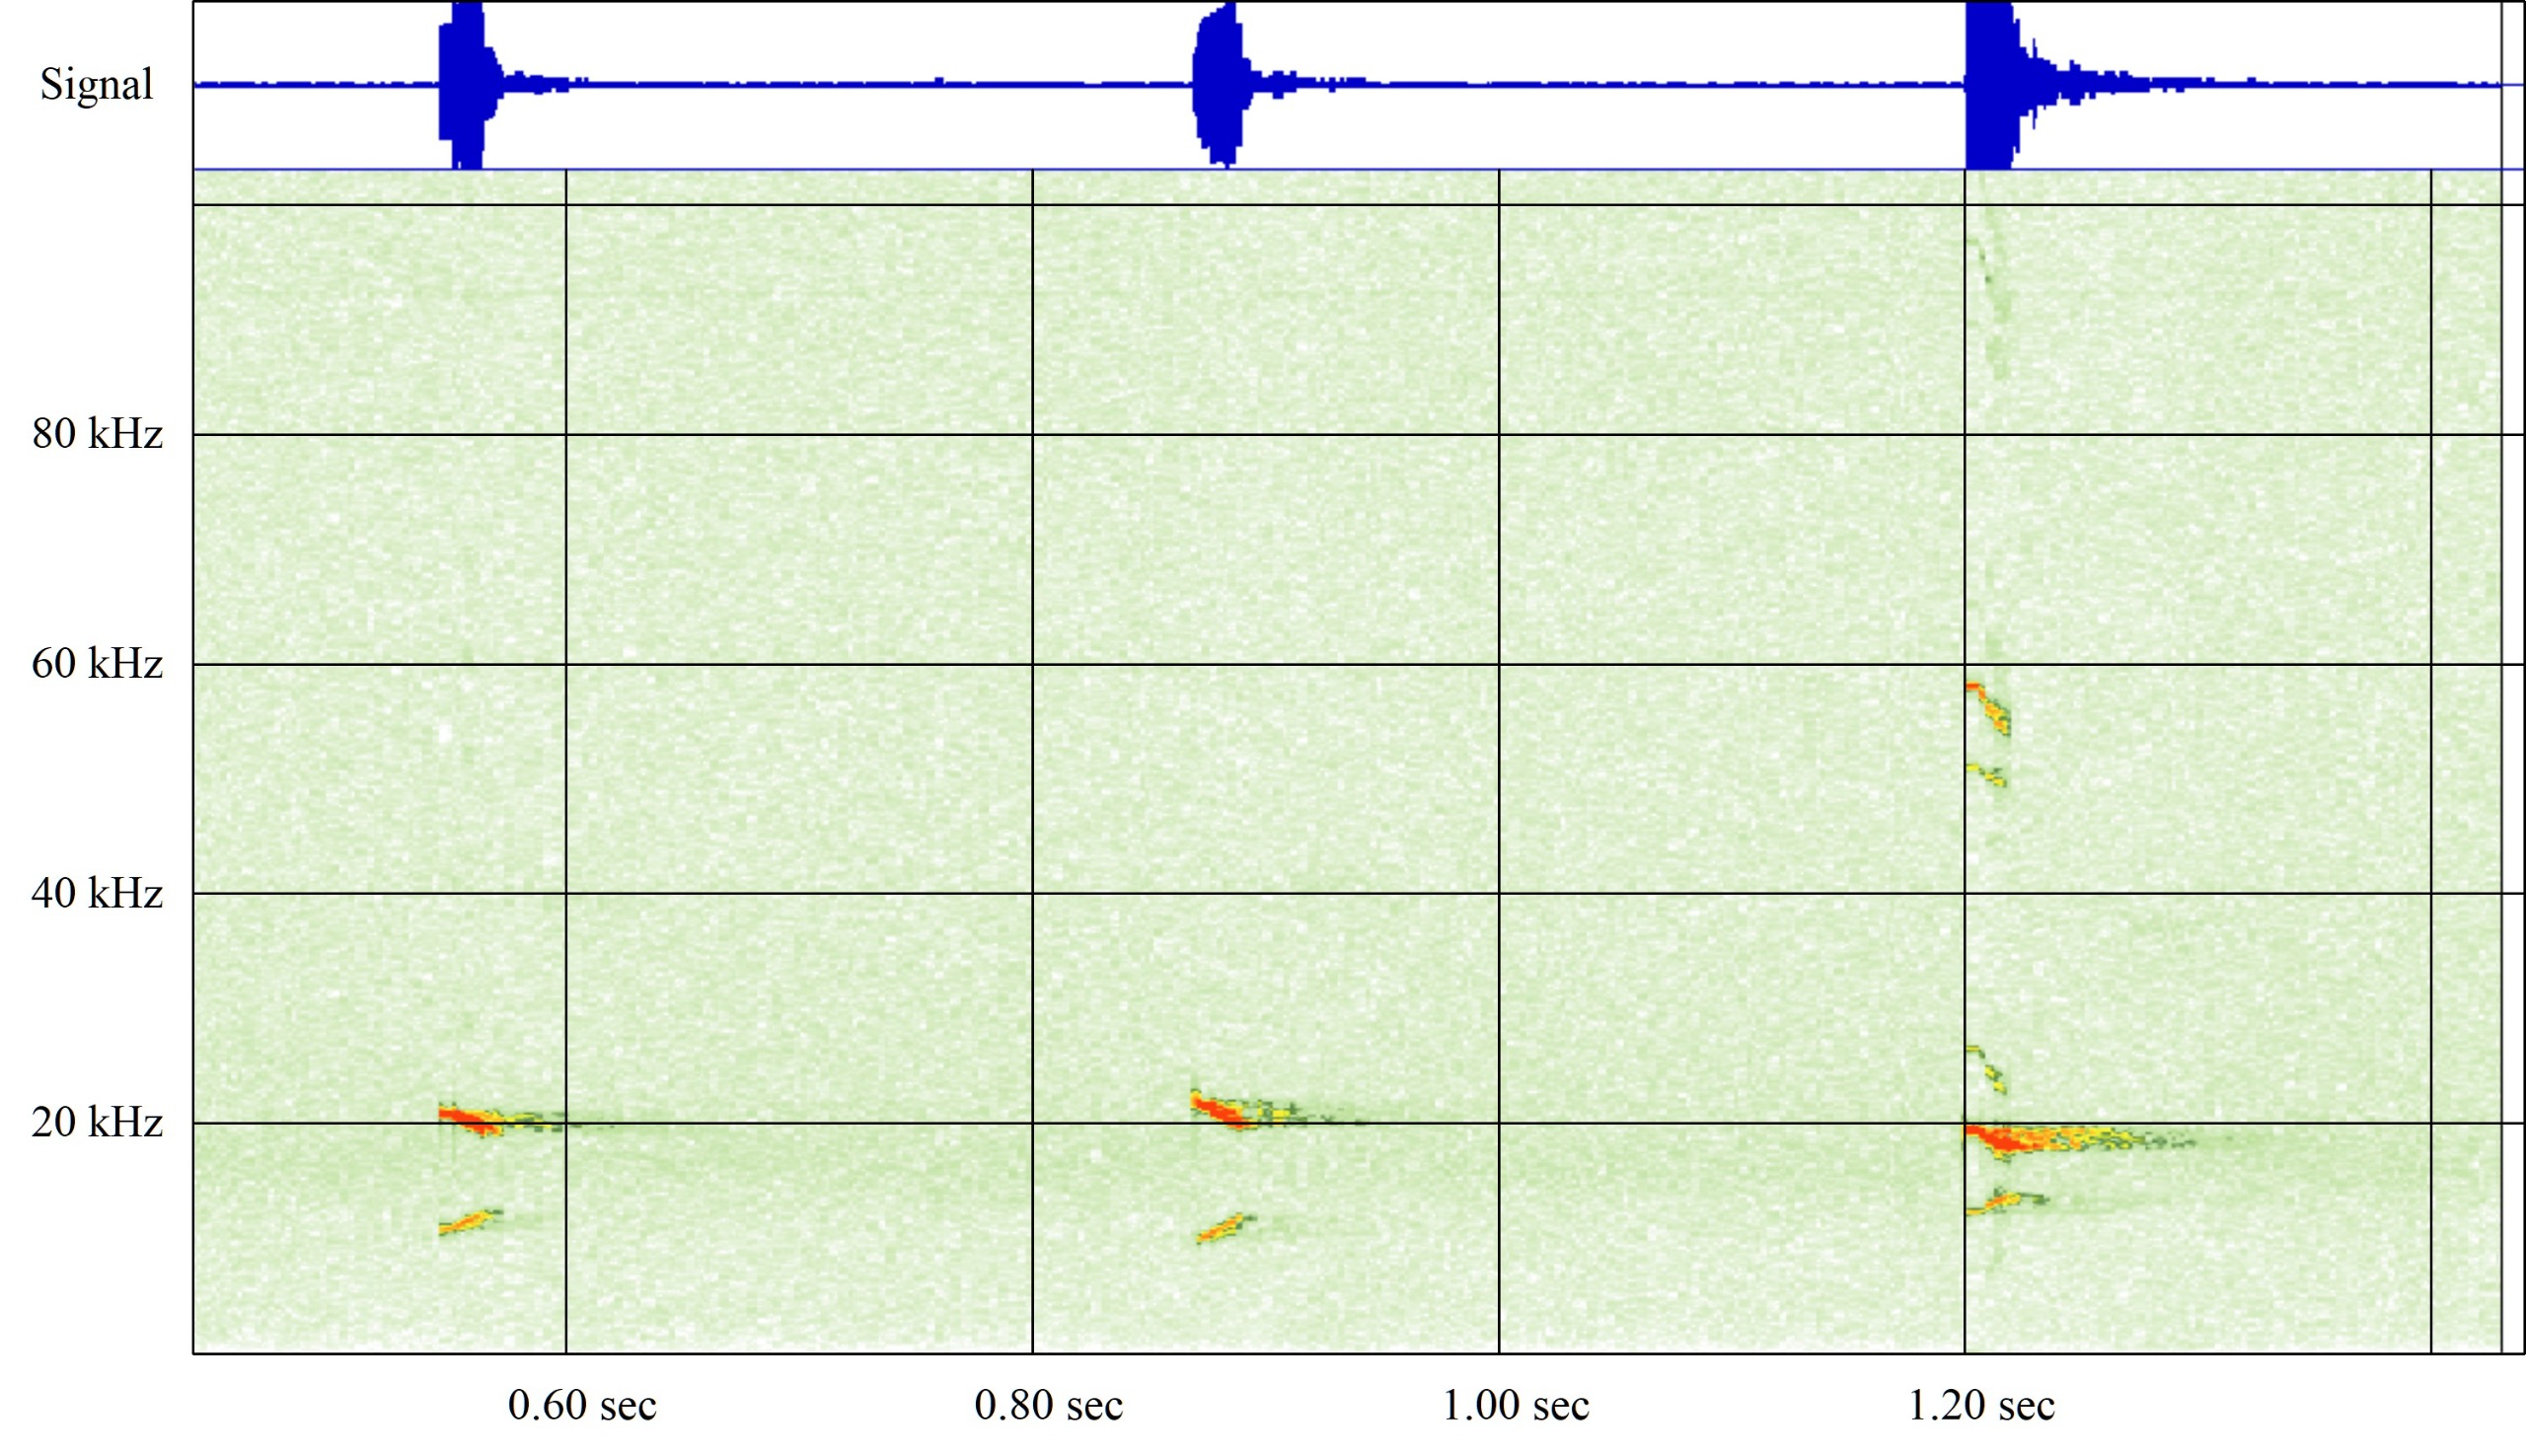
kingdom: Animalia
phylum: Chordata
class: Mammalia
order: Chiroptera
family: Vespertilionidae
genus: Nyctalus
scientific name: Nyctalus noctula
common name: Brunflagermus
